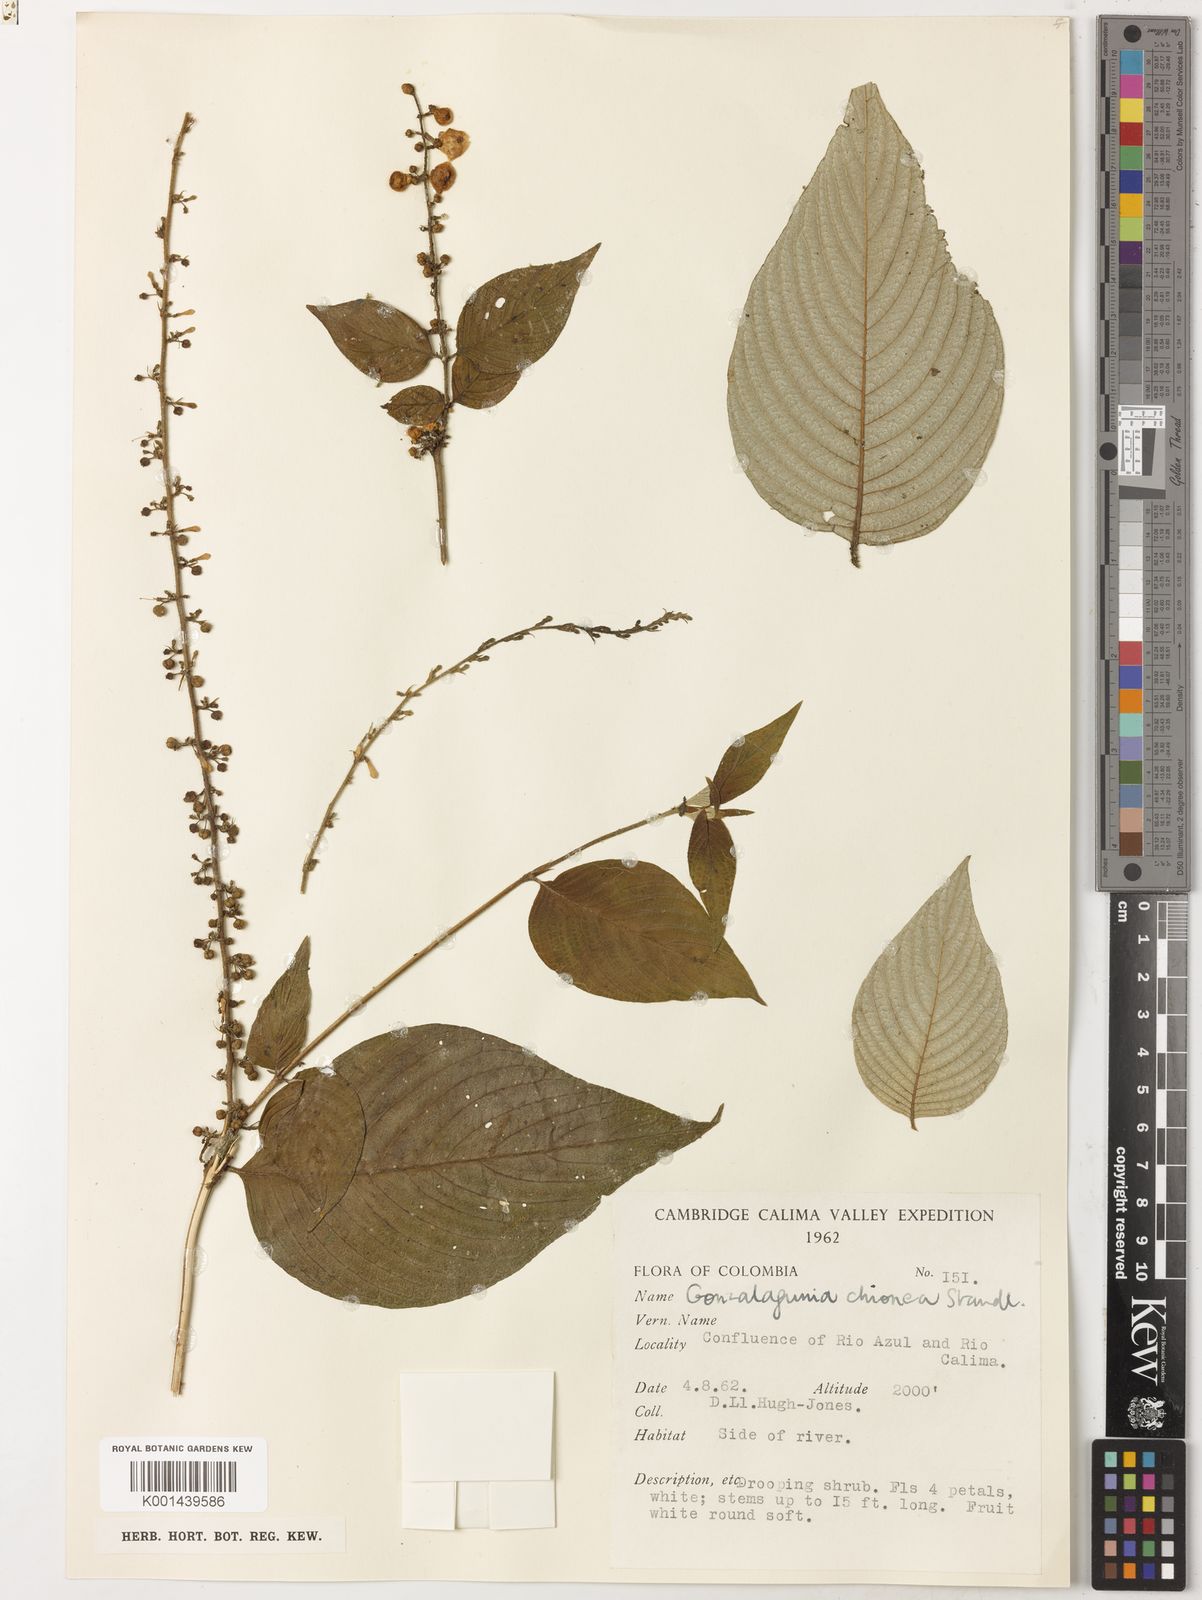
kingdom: Plantae
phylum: Tracheophyta
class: Magnoliopsida
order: Gentianales
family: Rubiaceae
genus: Gonzalagunia
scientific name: Gonzalagunia killipii
